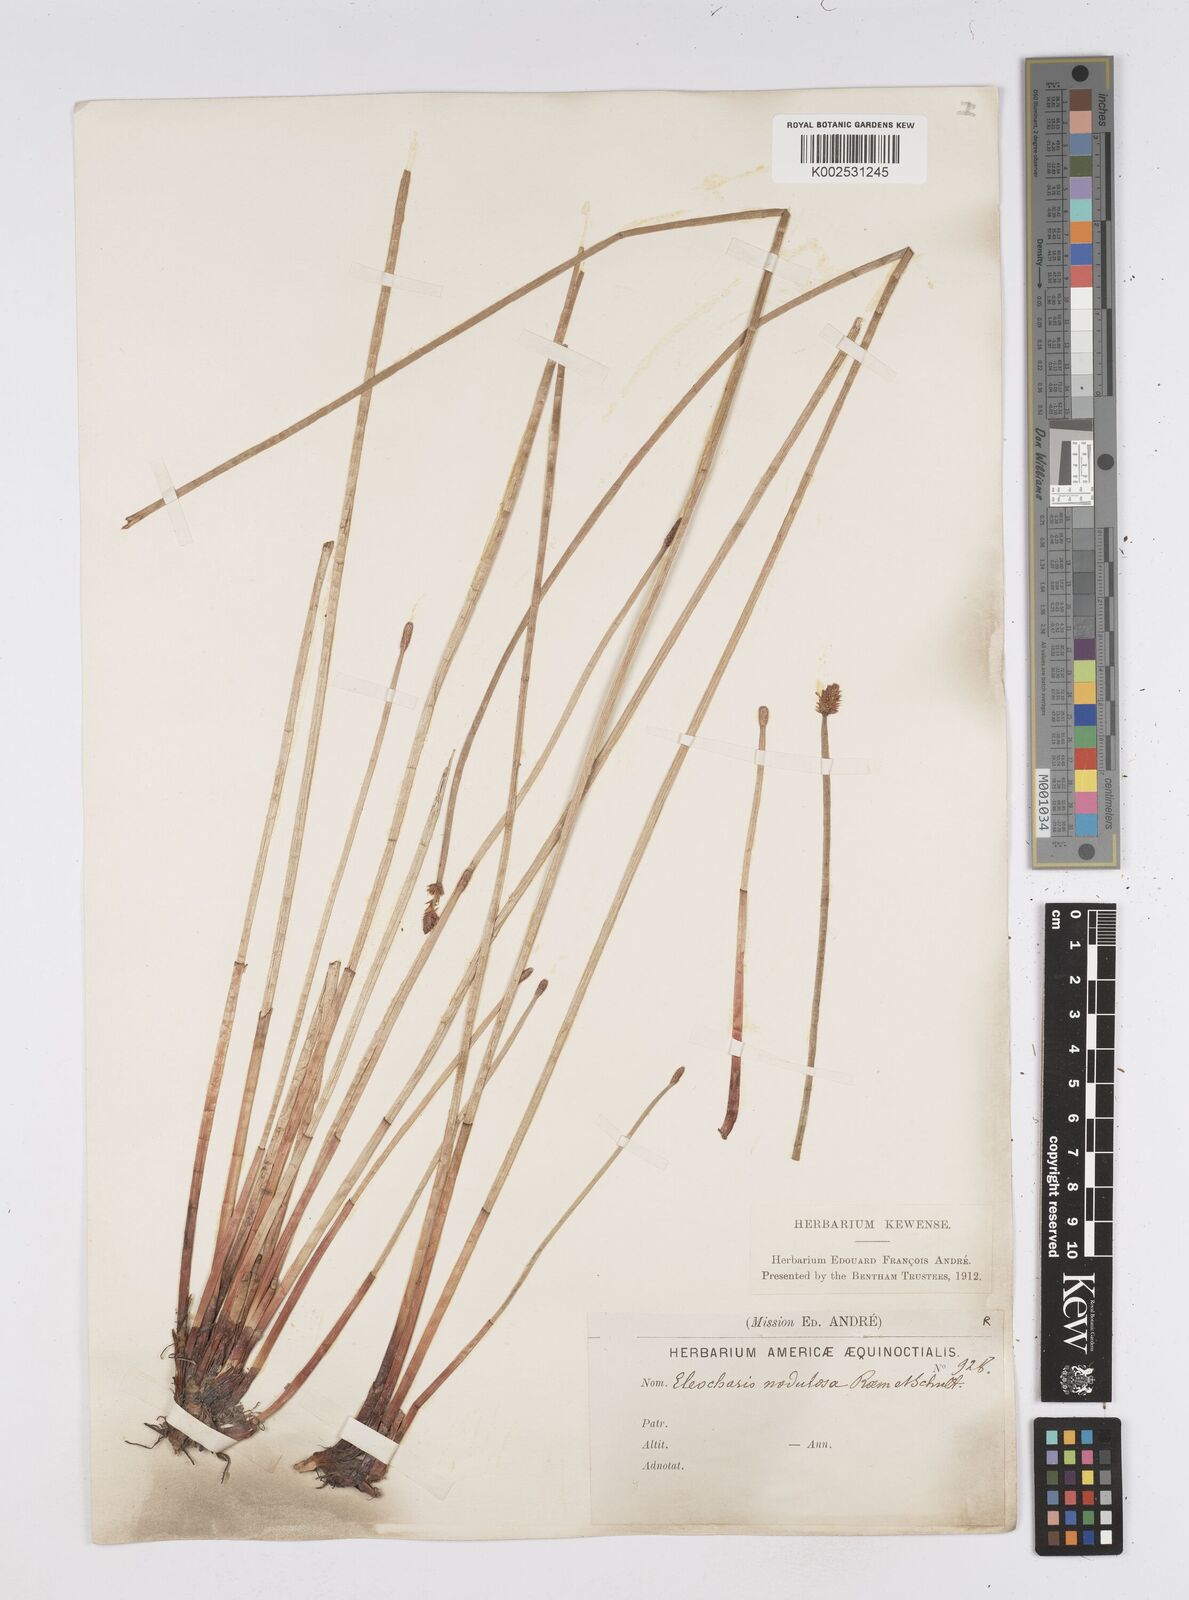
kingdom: Plantae
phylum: Tracheophyta
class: Liliopsida
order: Poales
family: Cyperaceae
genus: Eleocharis
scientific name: Eleocharis montana
